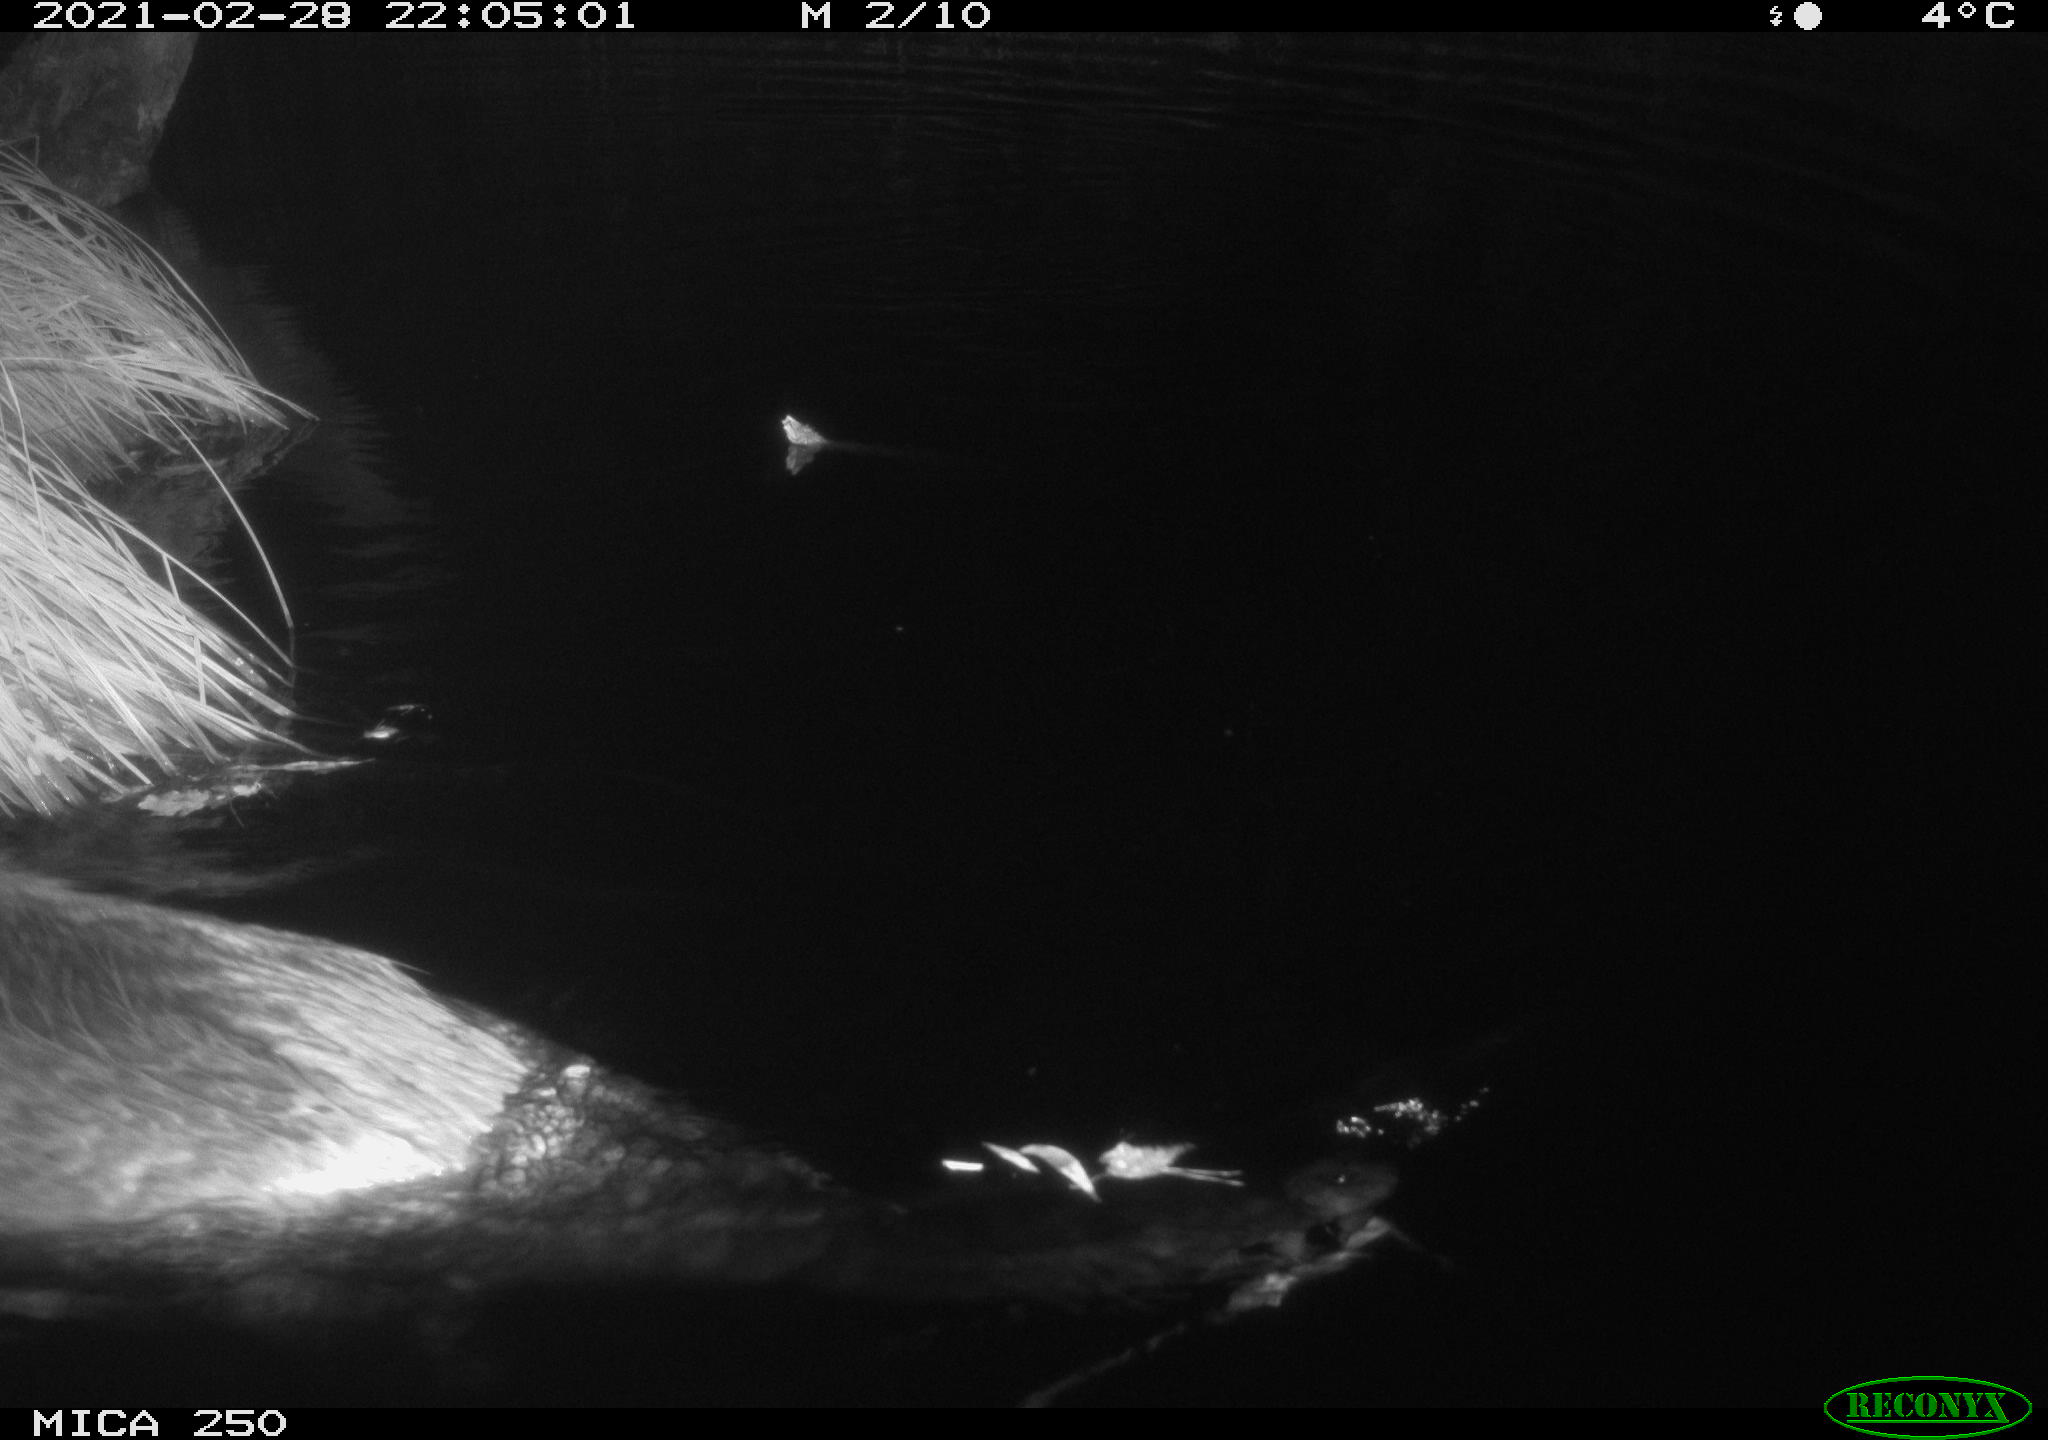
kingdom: Animalia
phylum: Chordata
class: Mammalia
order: Rodentia
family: Castoridae
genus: Castor
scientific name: Castor fiber
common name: Eurasian beaver
